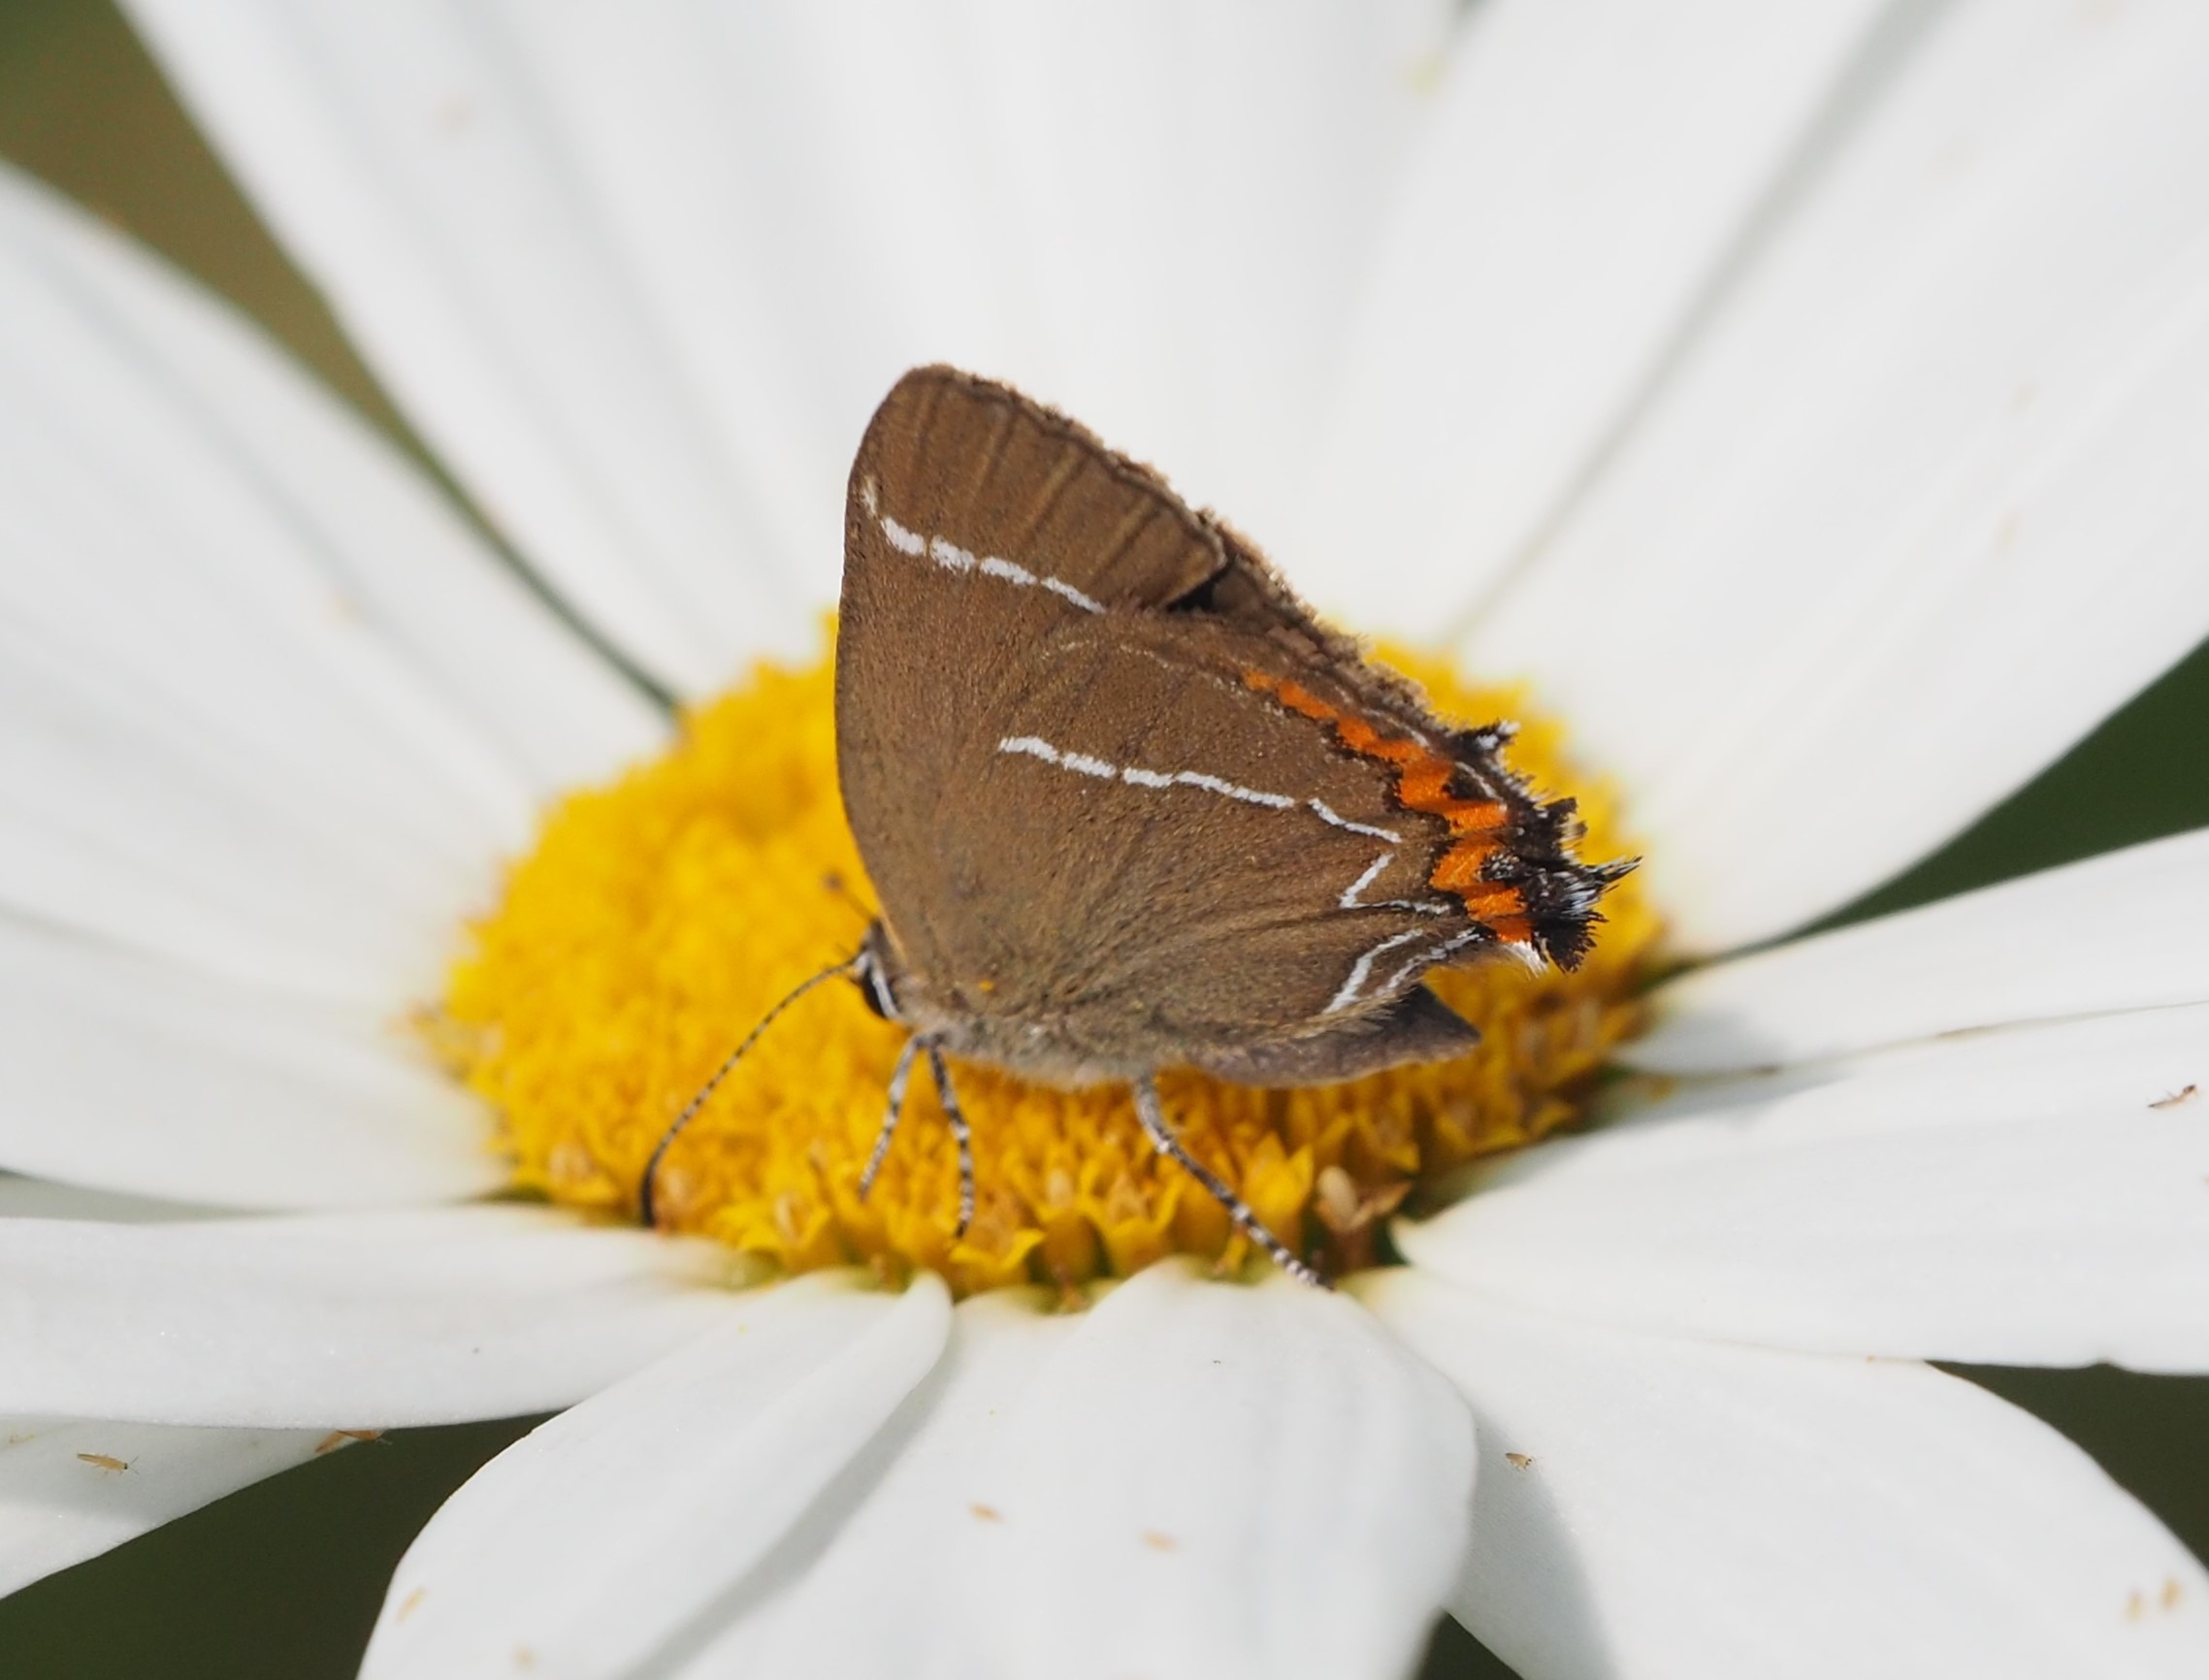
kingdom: Animalia
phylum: Arthropoda
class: Insecta
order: Lepidoptera
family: Lycaenidae
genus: Satyrium
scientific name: Satyrium w-album
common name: Det hvide W
